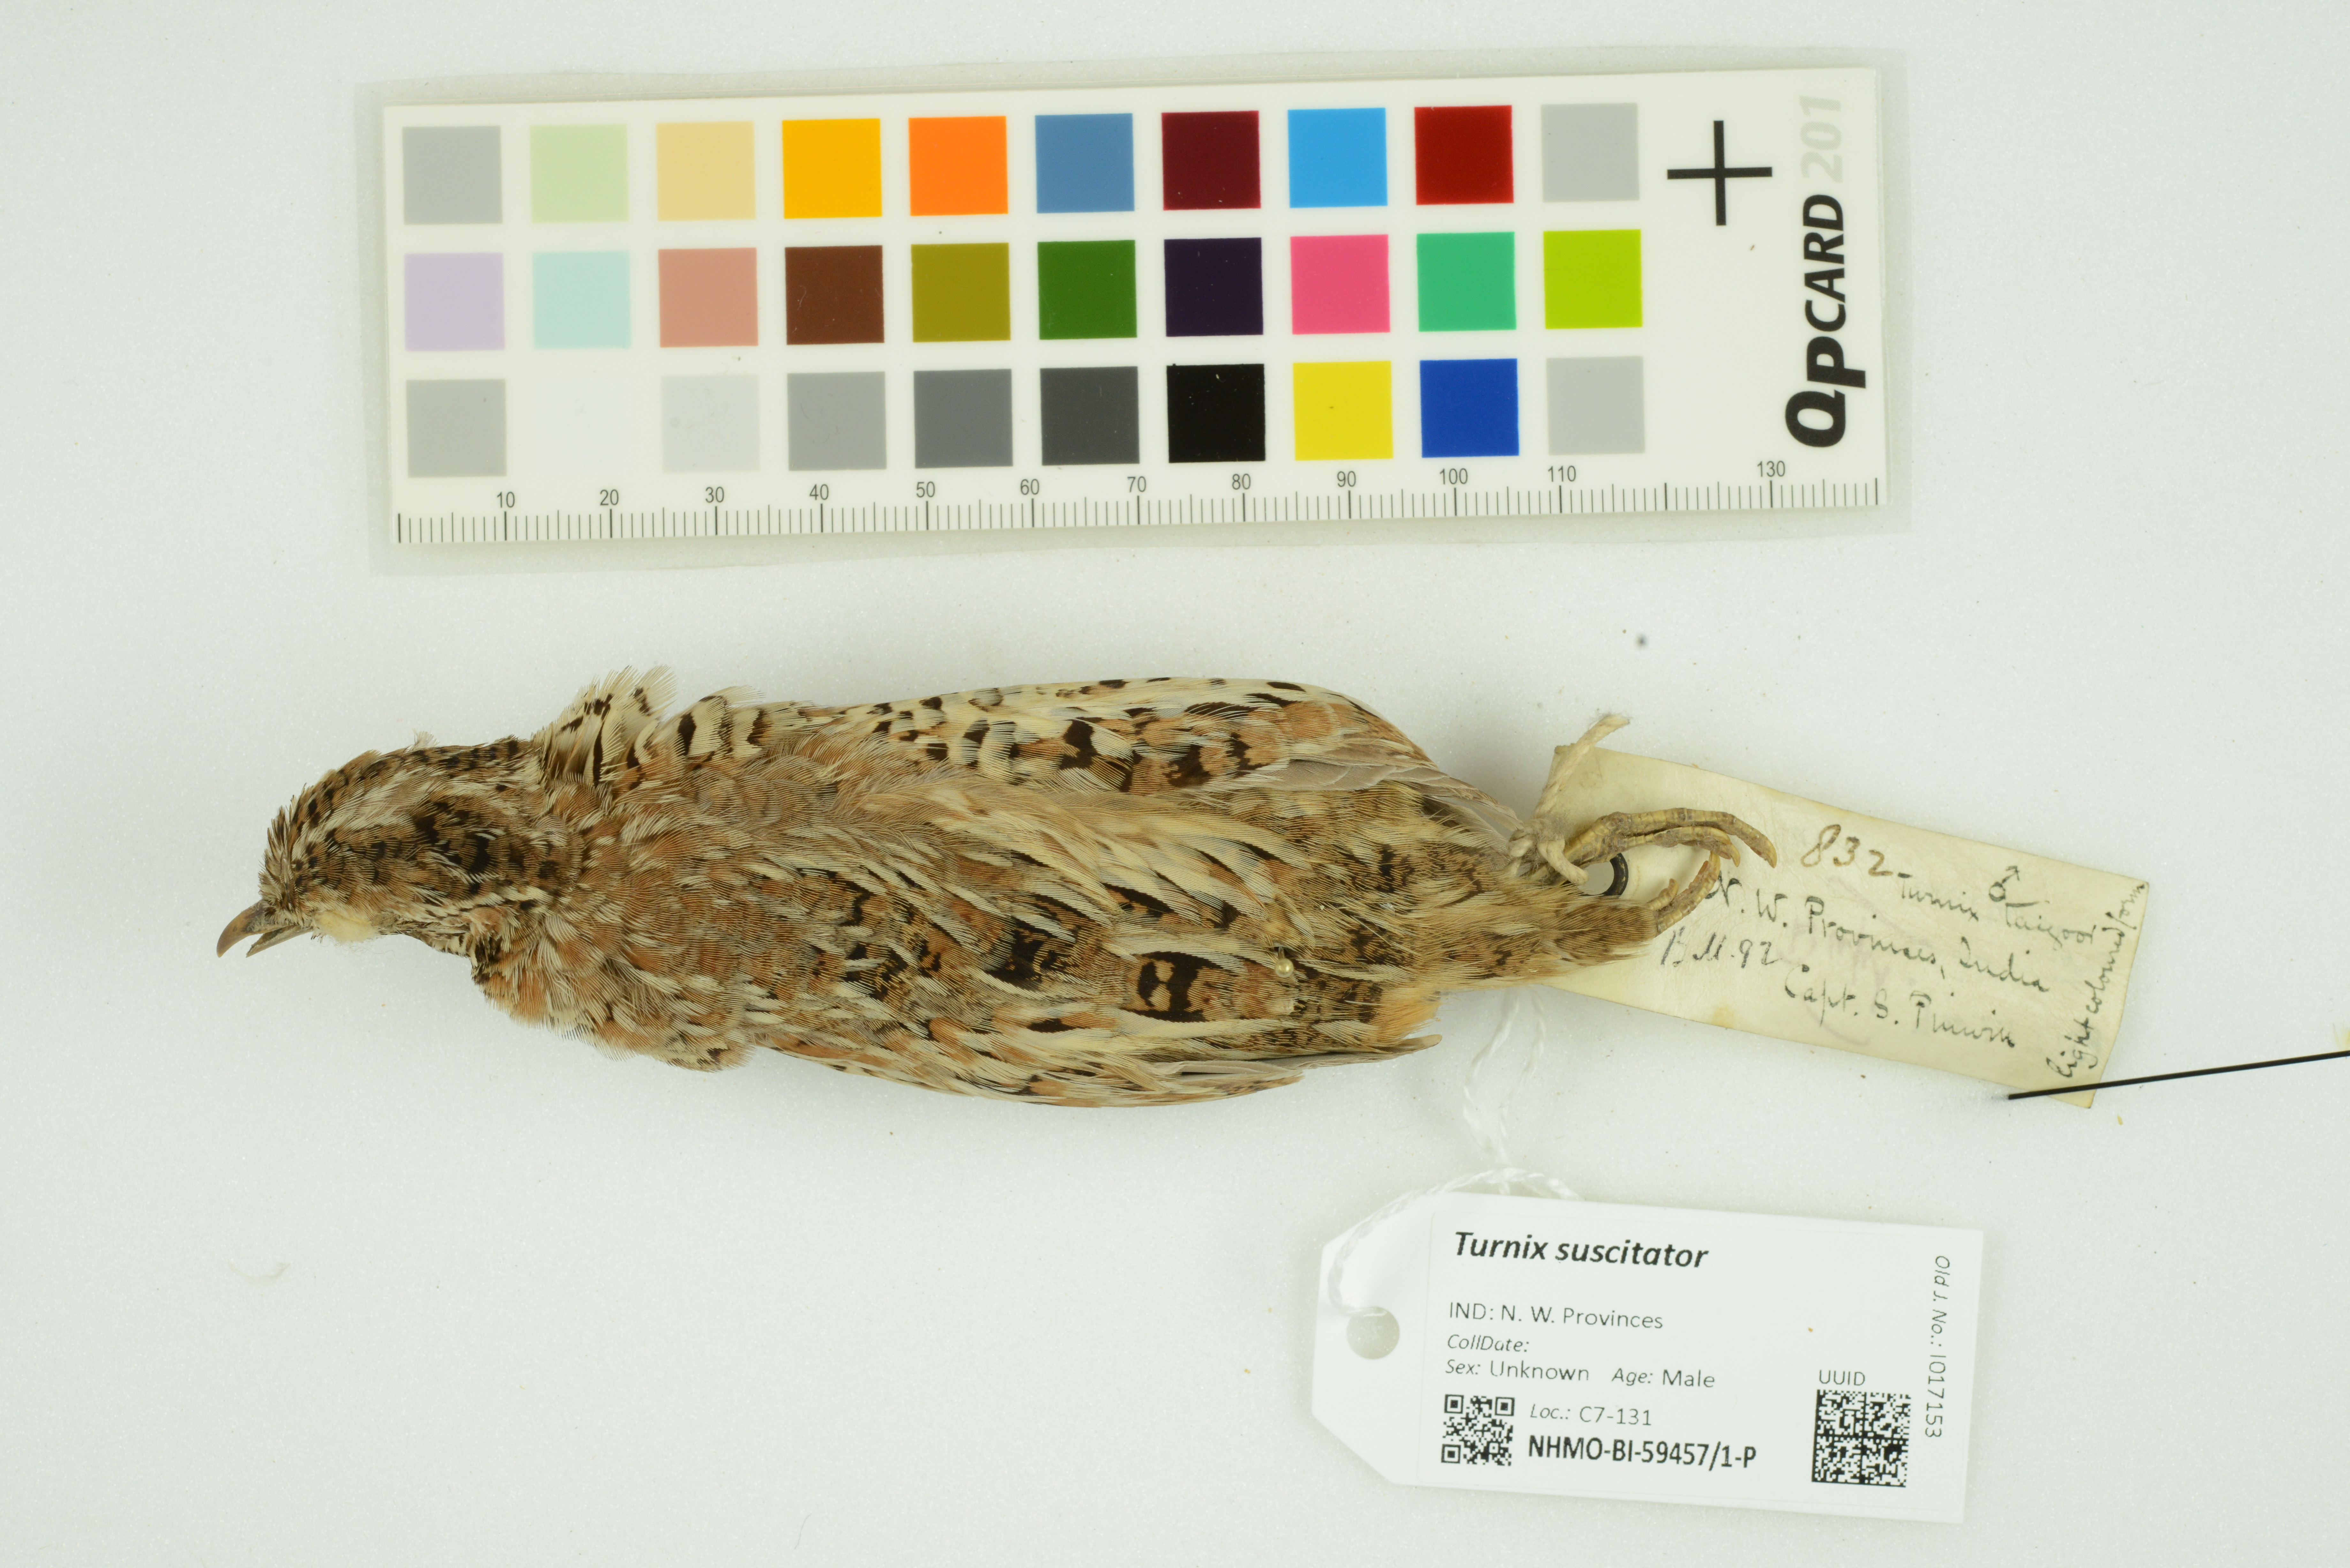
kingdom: Animalia
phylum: Chordata
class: Aves
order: Charadriiformes
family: Turnicidae
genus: Turnix
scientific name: Turnix suscitator
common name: Barred buttonquail
